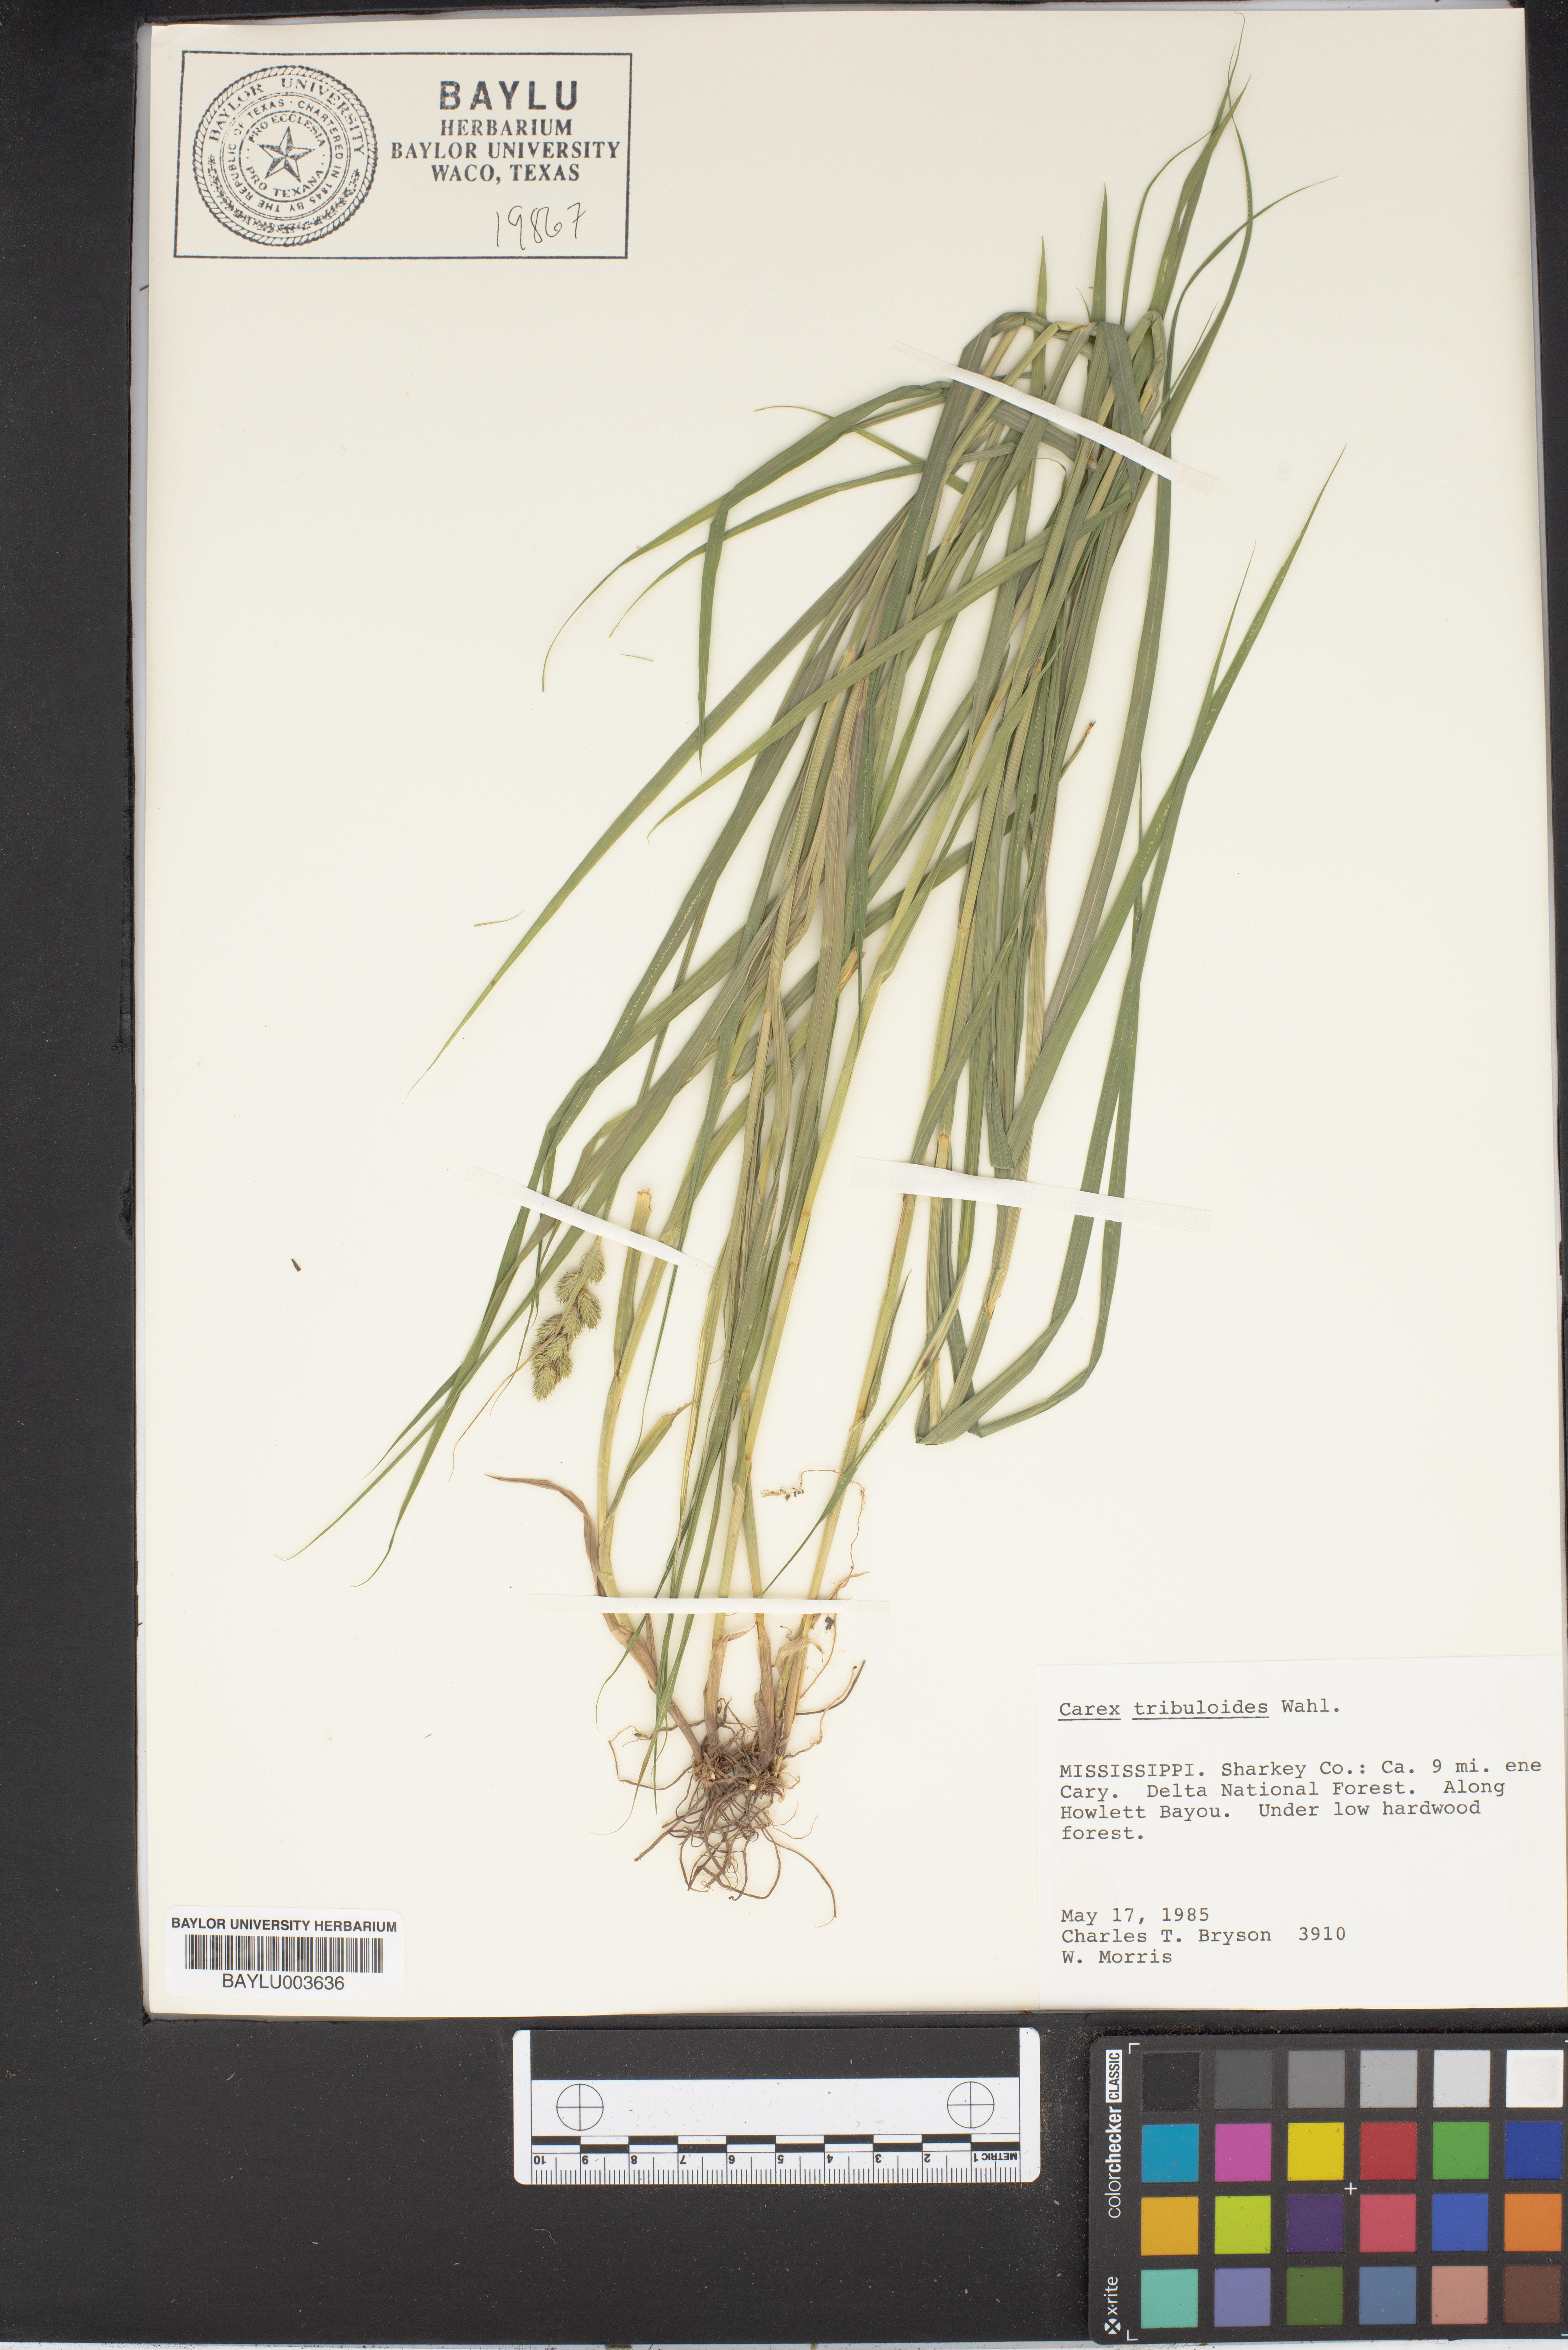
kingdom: Plantae
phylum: Tracheophyta
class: Liliopsida
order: Poales
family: Cyperaceae
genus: Carex
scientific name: Carex tribuloides
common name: Blunt broom sedge
